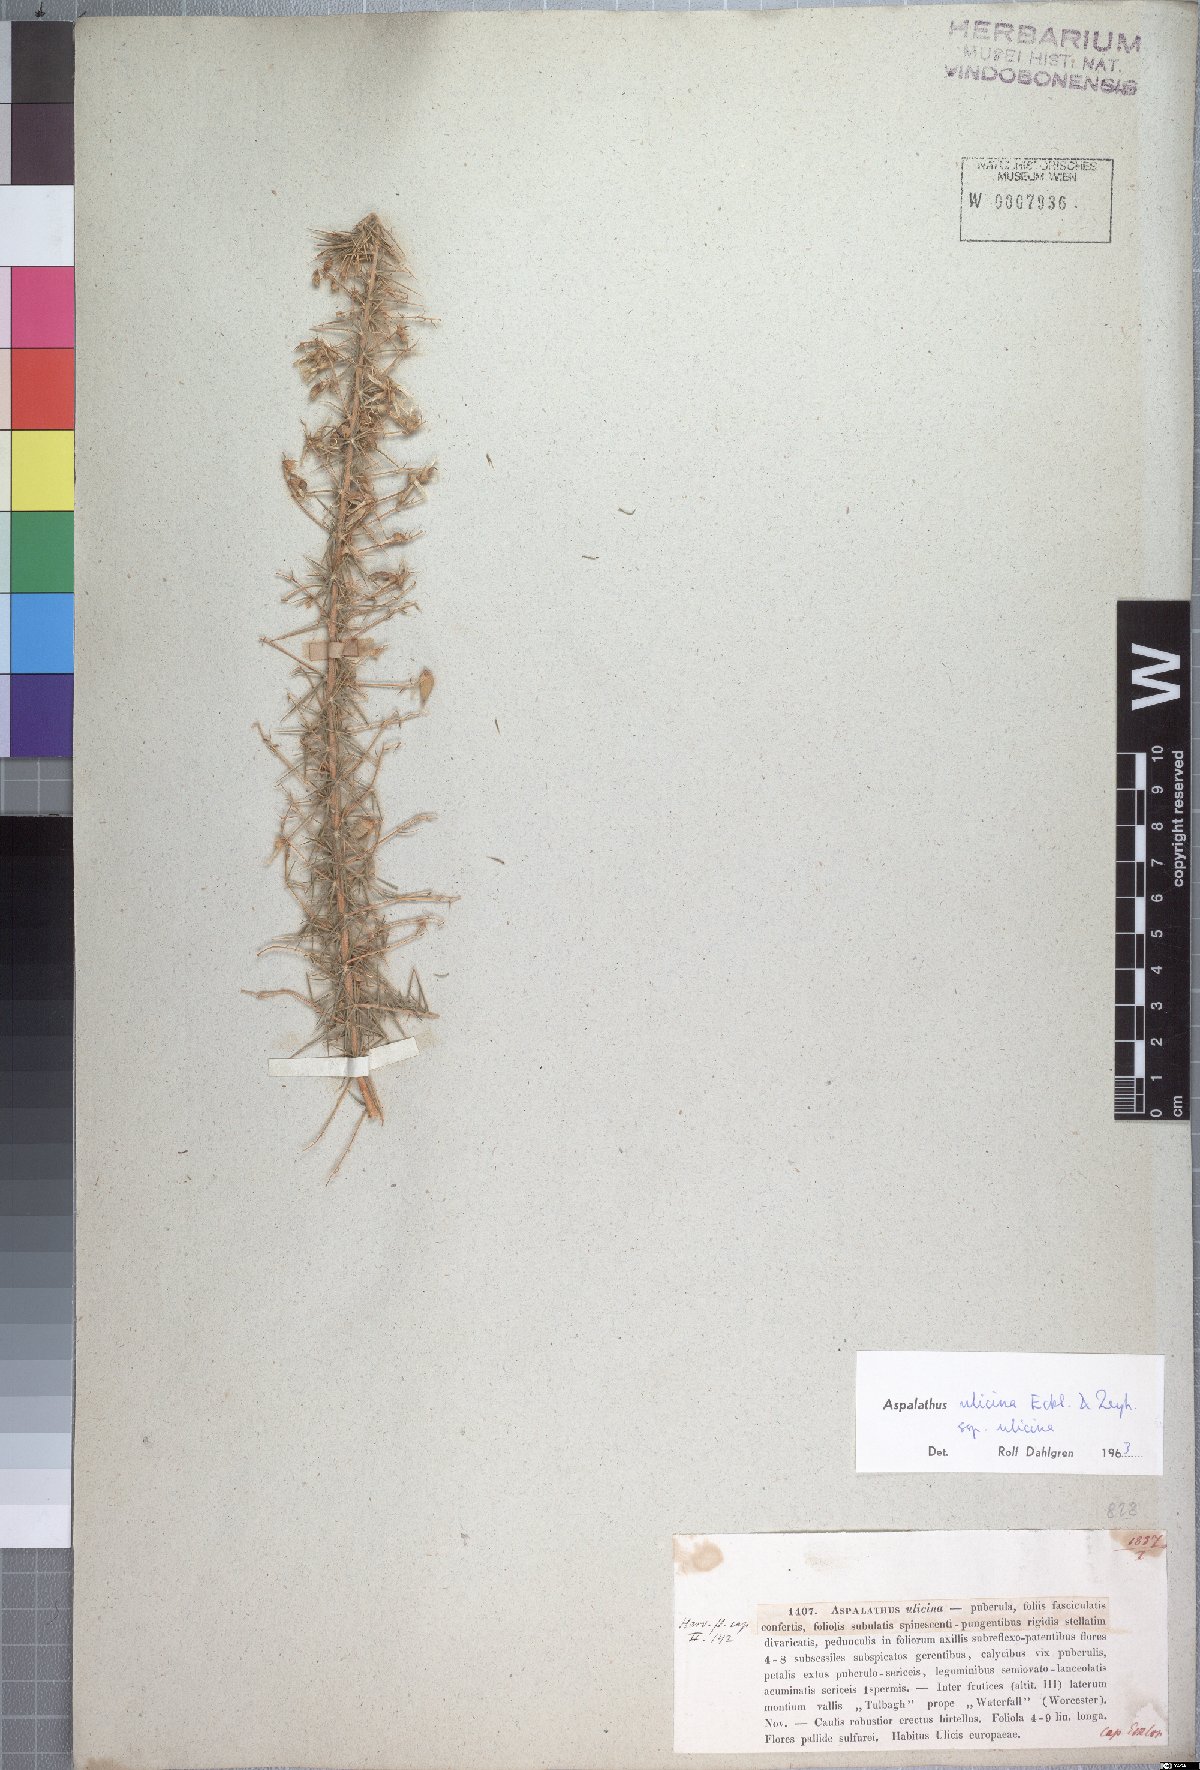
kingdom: Plantae
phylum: Tracheophyta
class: Magnoliopsida
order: Fabales
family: Fabaceae
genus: Aspalathus
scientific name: Aspalathus ulicina
